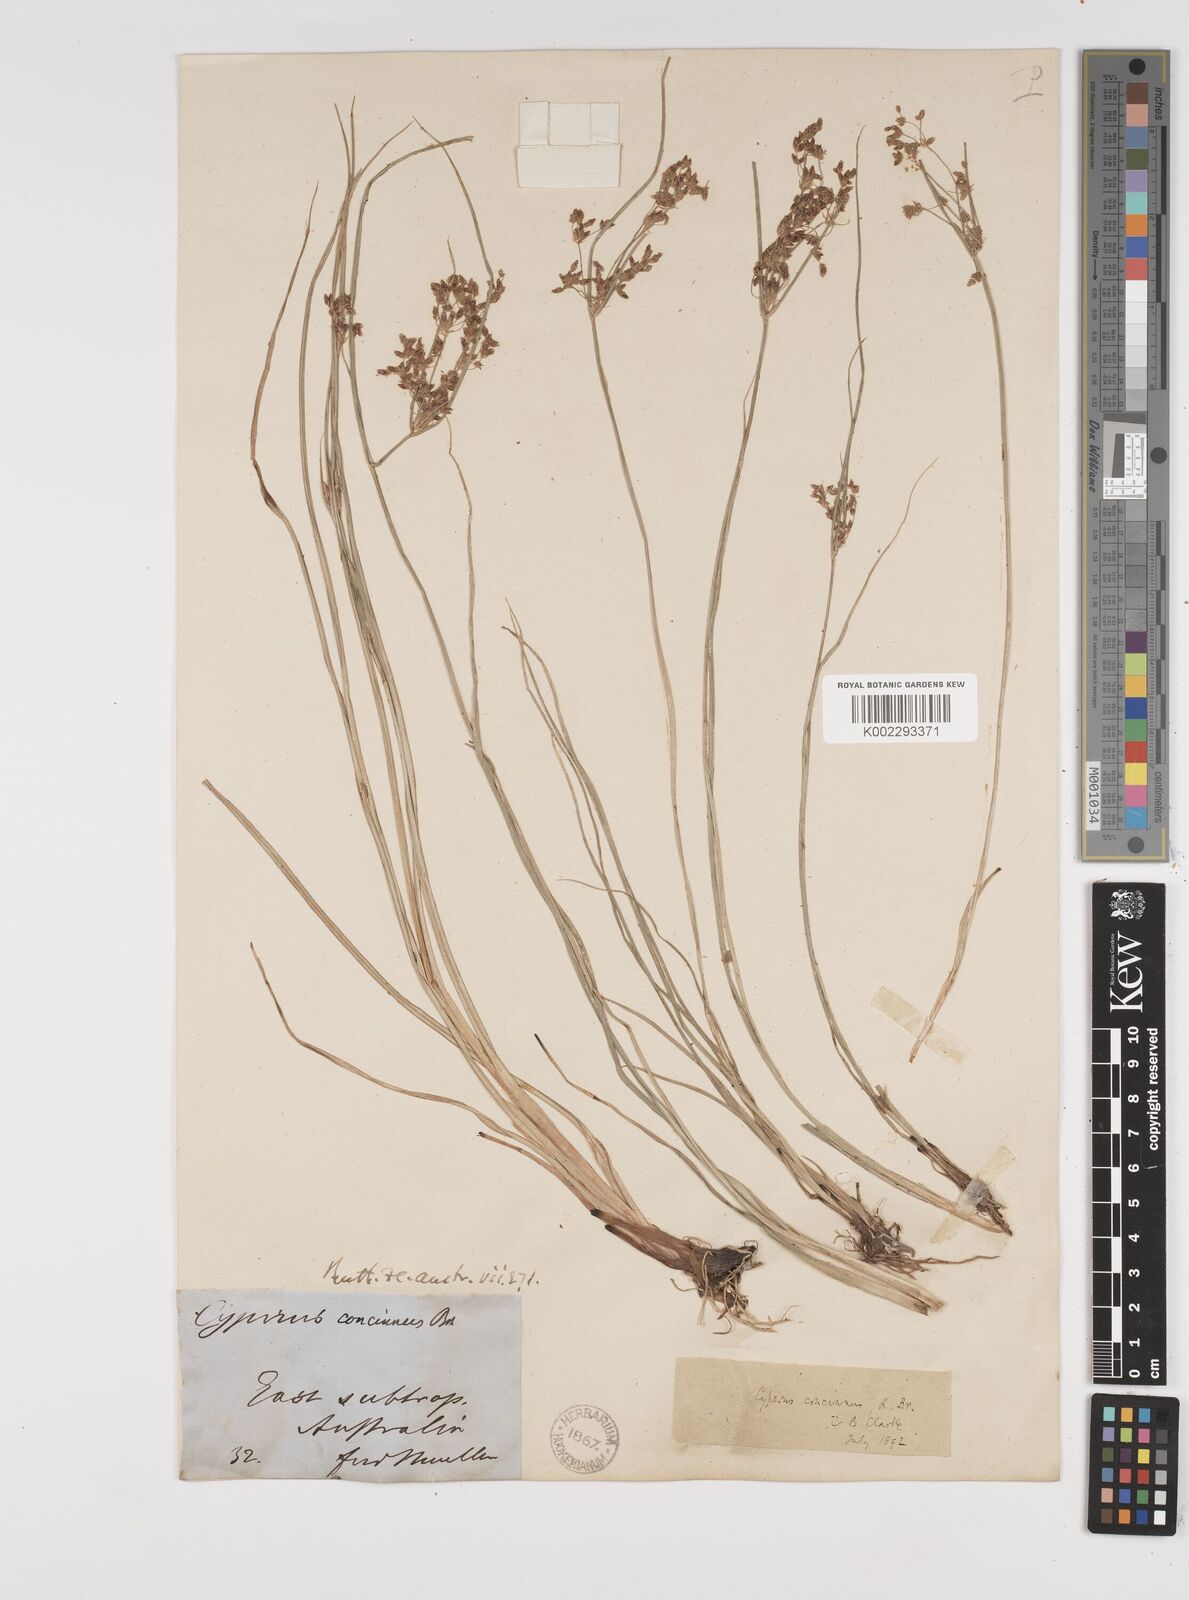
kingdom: Plantae
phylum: Tracheophyta
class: Liliopsida
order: Poales
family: Cyperaceae
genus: Cyperus
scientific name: Cyperus concinnus
